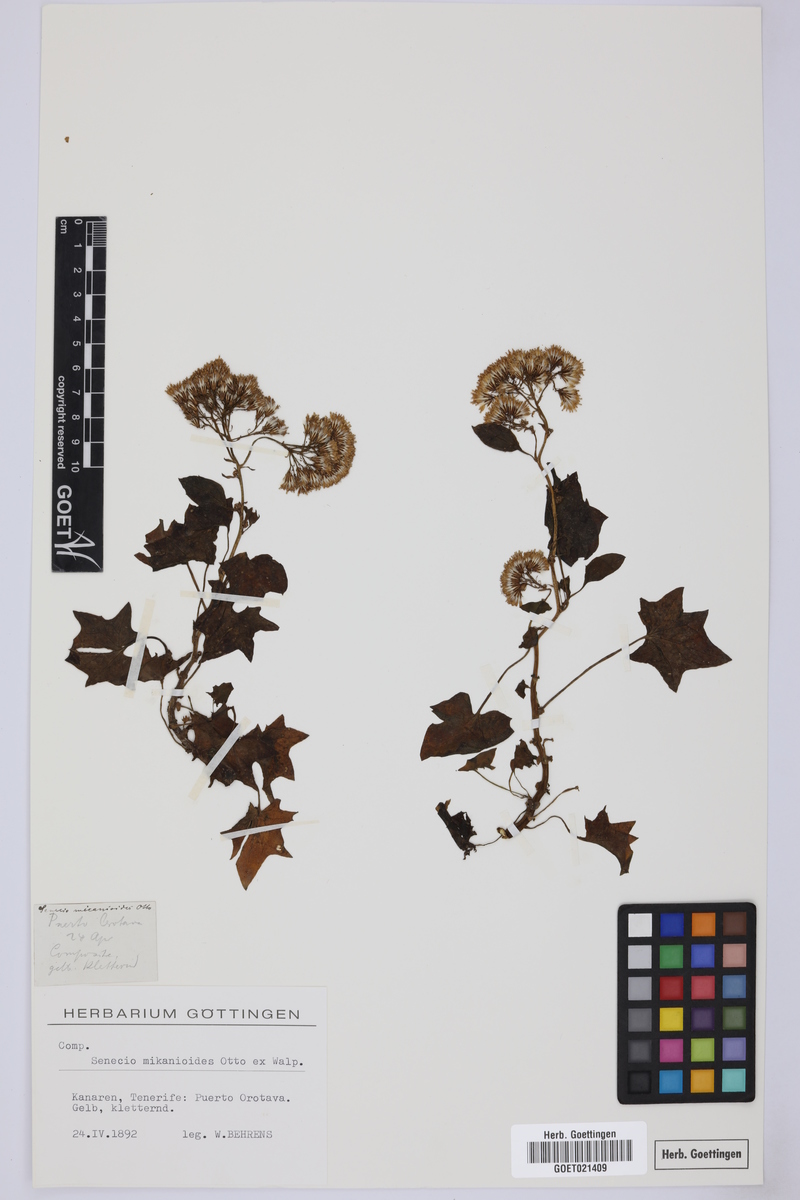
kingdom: Plantae
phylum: Tracheophyta
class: Magnoliopsida
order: Asterales
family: Asteraceae
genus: Senecio
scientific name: Senecio mikanioides
